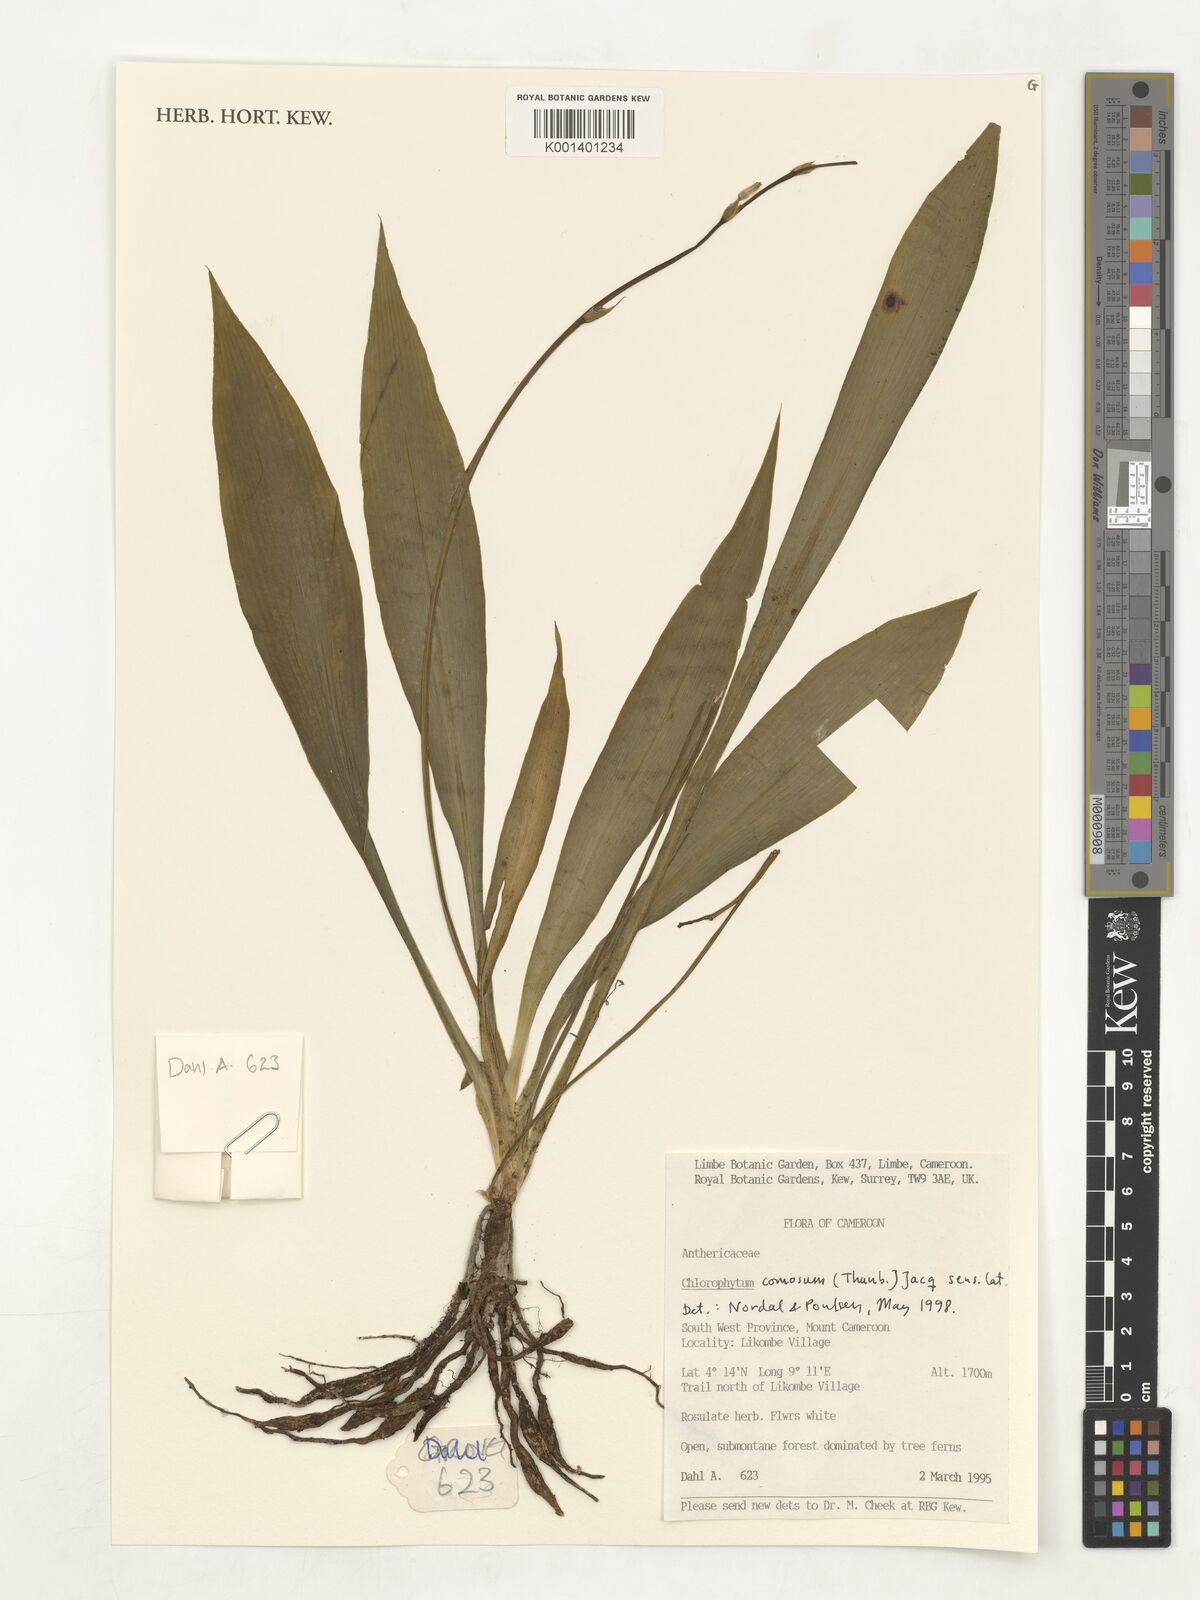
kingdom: Plantae
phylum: Tracheophyta
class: Liliopsida
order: Asparagales
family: Asparagaceae
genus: Chlorophytum
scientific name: Chlorophytum comosum
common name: Spider plant
